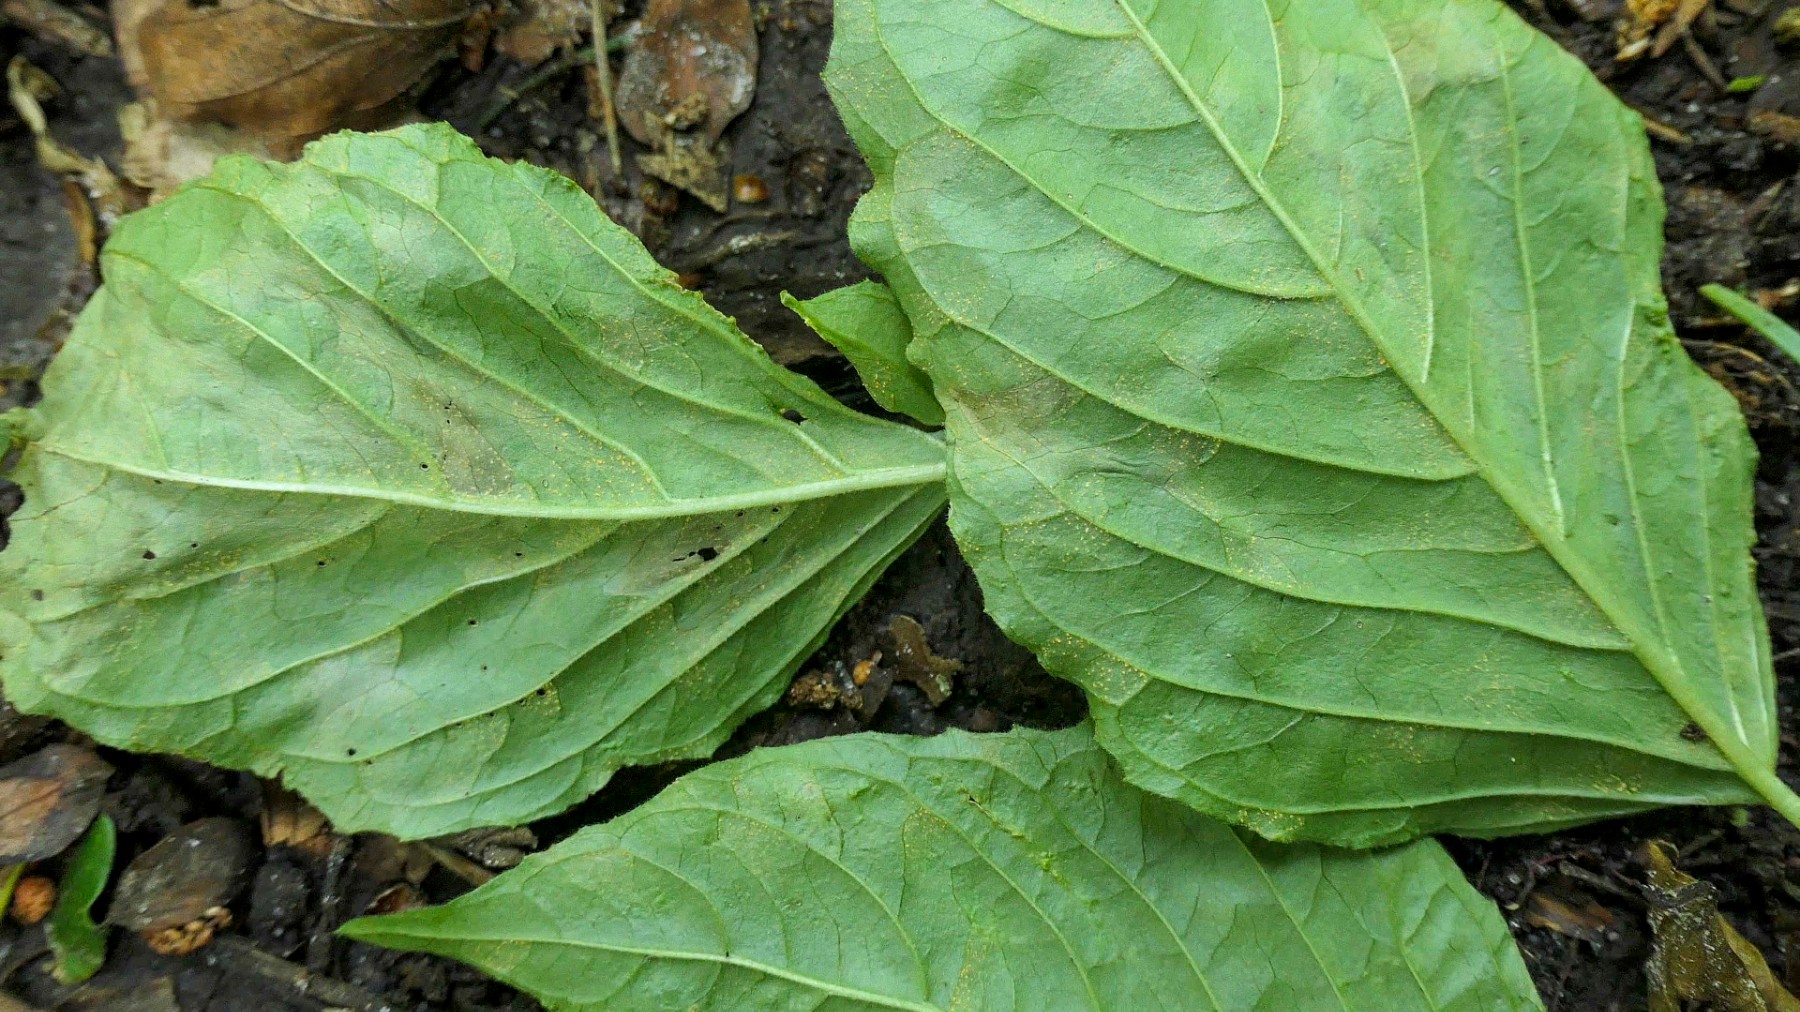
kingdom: Fungi
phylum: Basidiomycota
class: Pucciniomycetes
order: Pucciniales
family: Pucciniastraceae
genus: Pucciniastrum
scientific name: Pucciniastrum circaeae
